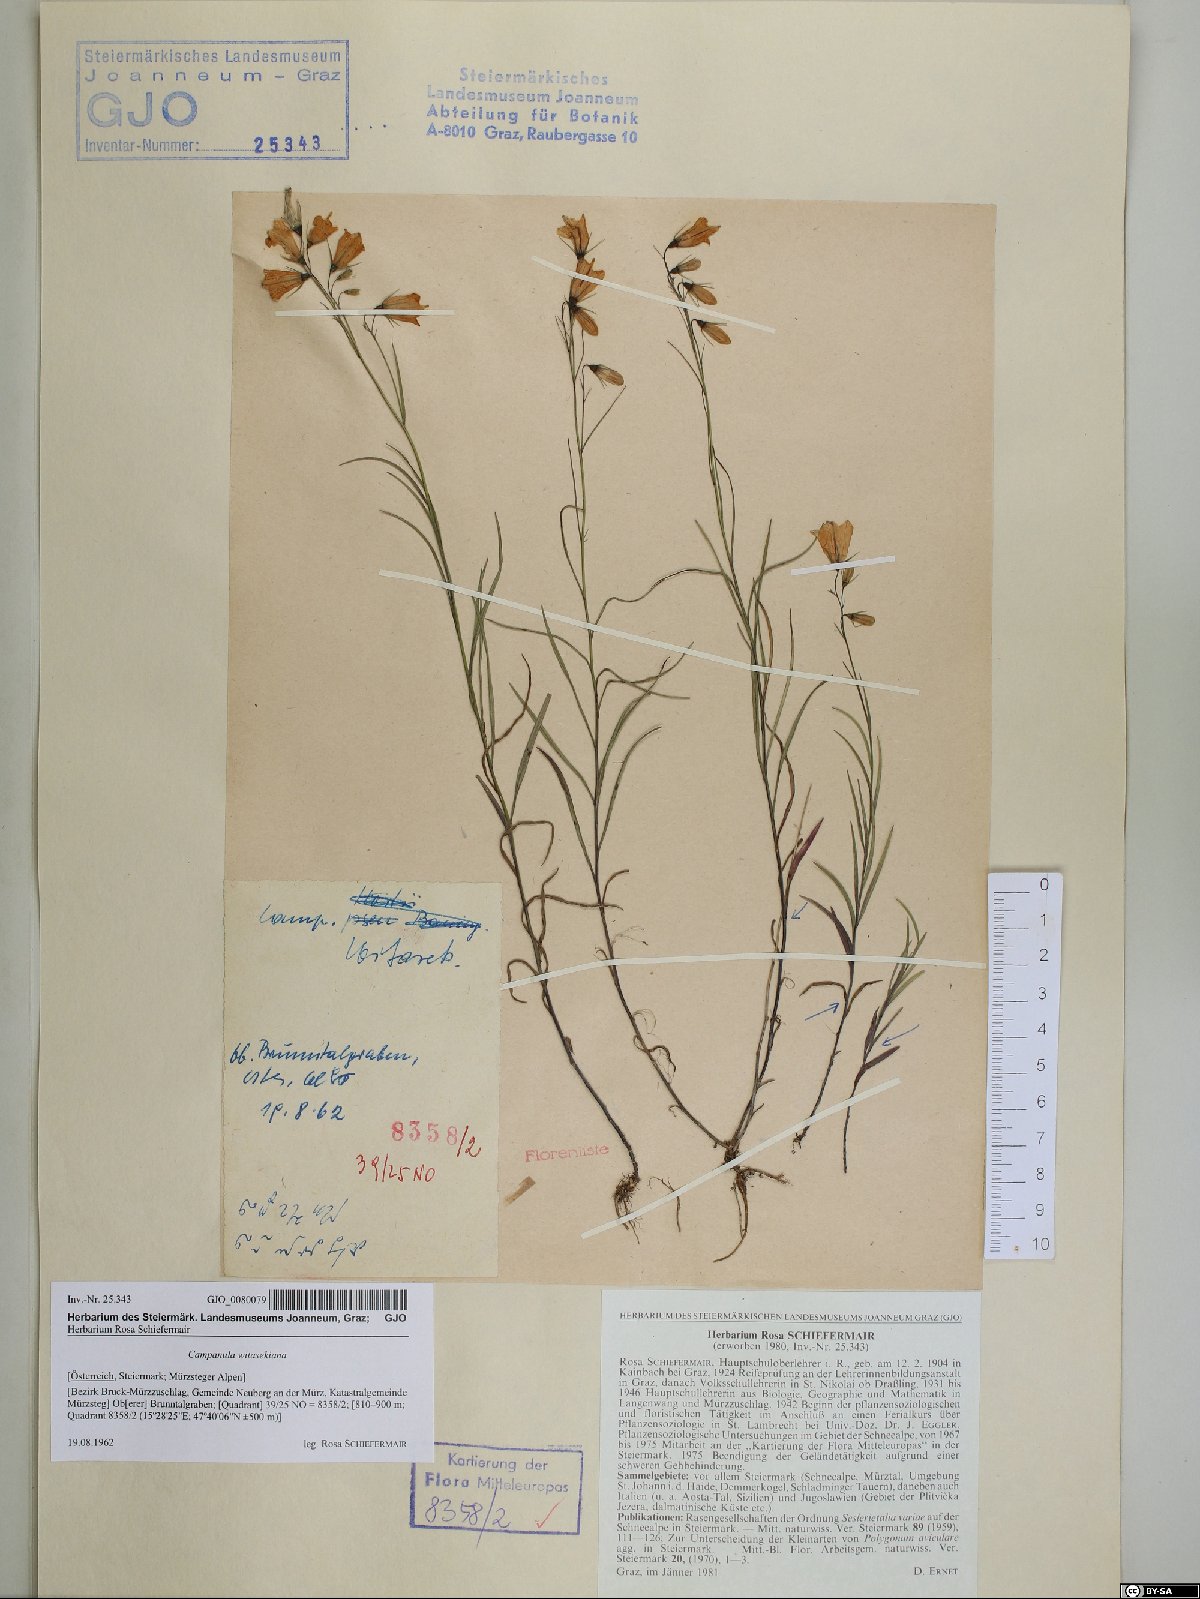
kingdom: Plantae
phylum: Tracheophyta
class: Magnoliopsida
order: Asterales
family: Campanulaceae
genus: Campanula
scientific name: Campanula witasekiana
